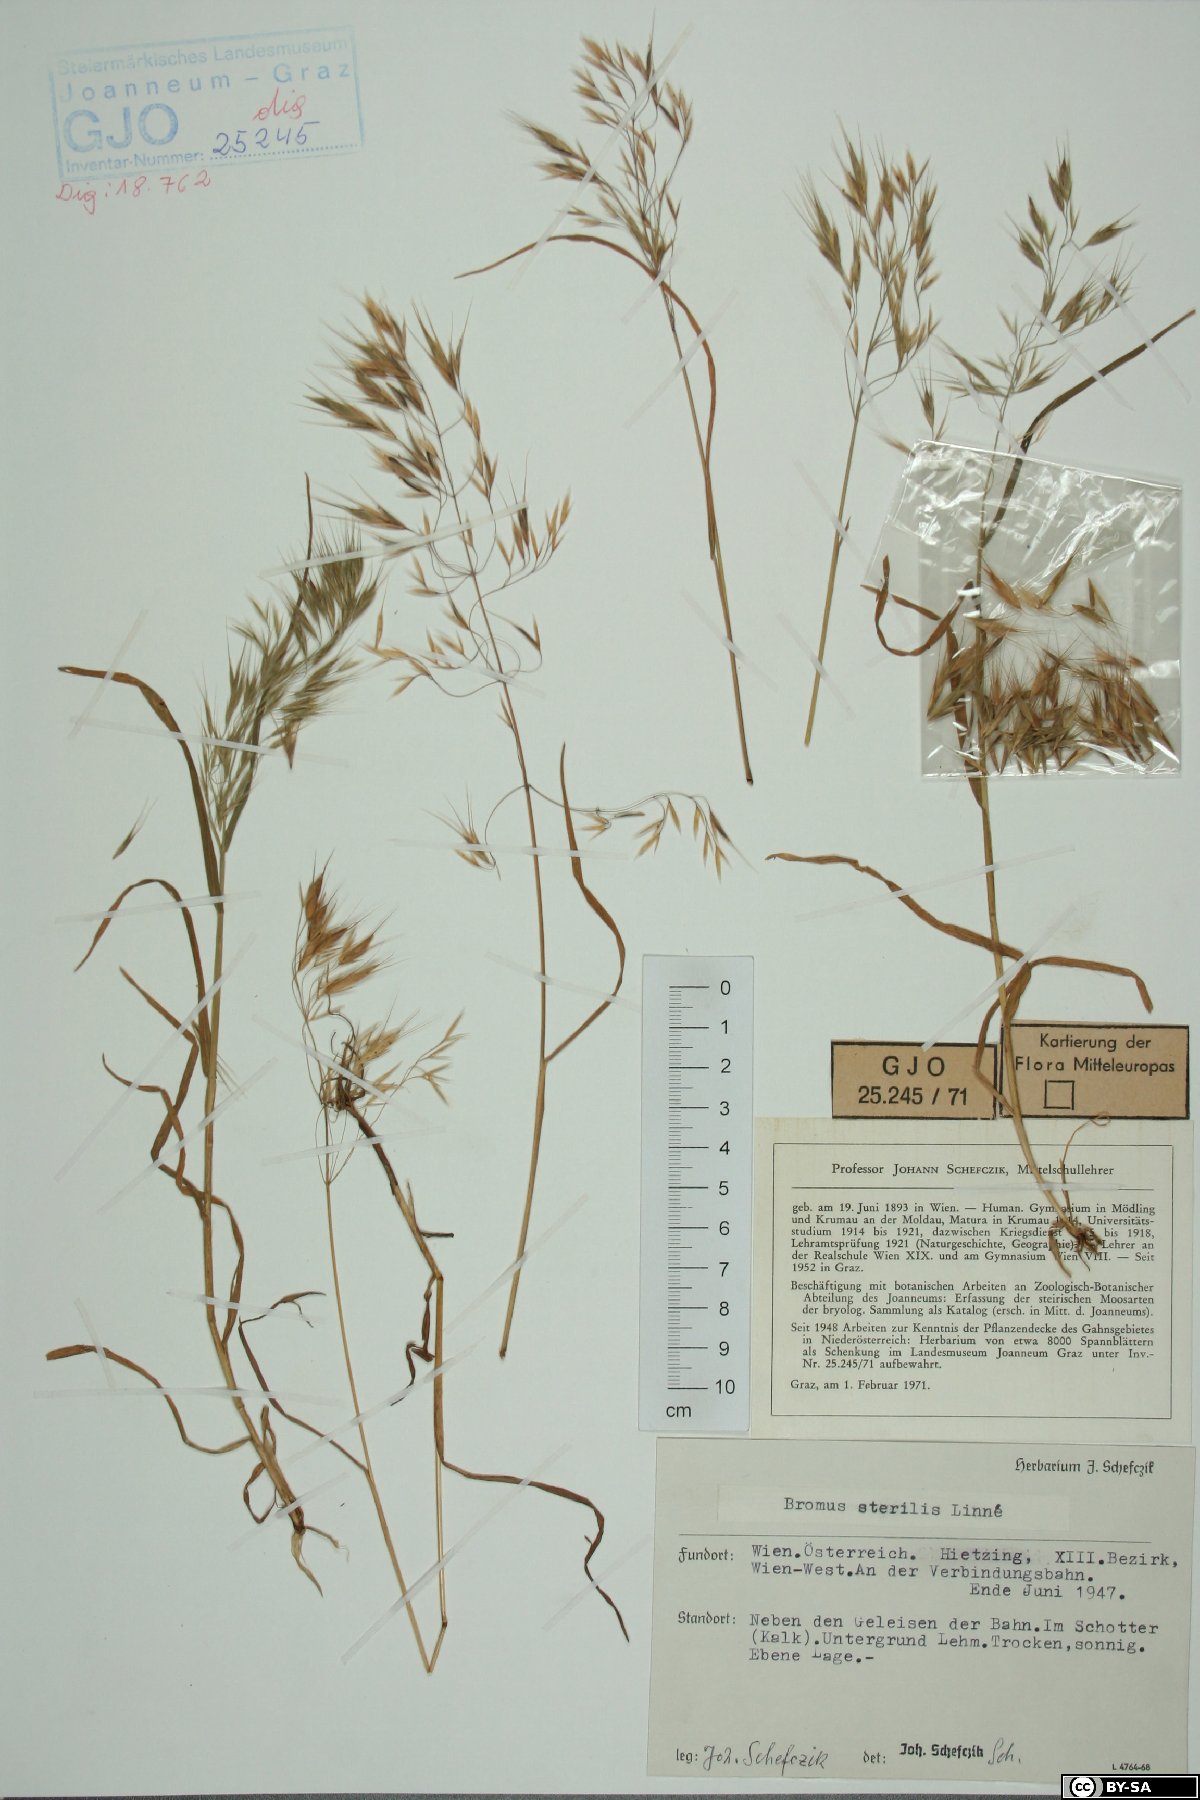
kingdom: Plantae
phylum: Tracheophyta
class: Liliopsida
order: Poales
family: Poaceae
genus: Bromus
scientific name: Bromus sterilis
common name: Poverty brome
